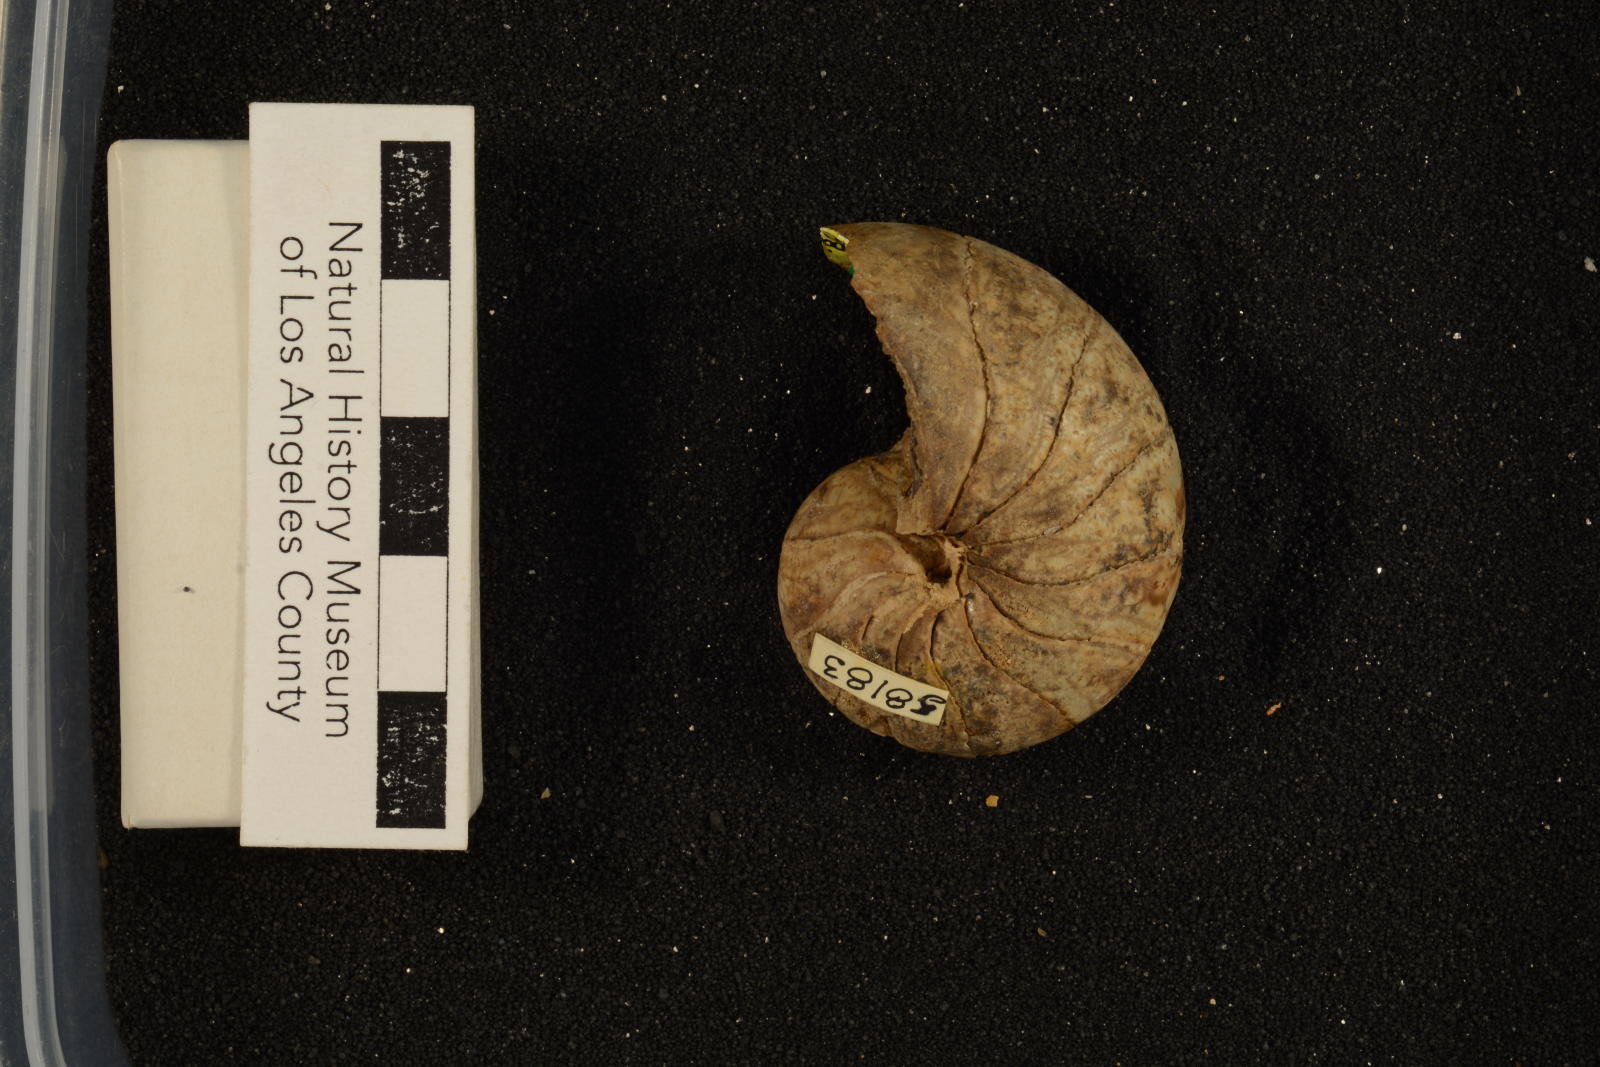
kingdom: Animalia
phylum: Mollusca
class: Cephalopoda
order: Nautilida
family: Cymatoceratidae
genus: Anglonautilus
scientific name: Anglonautilus catarinae
